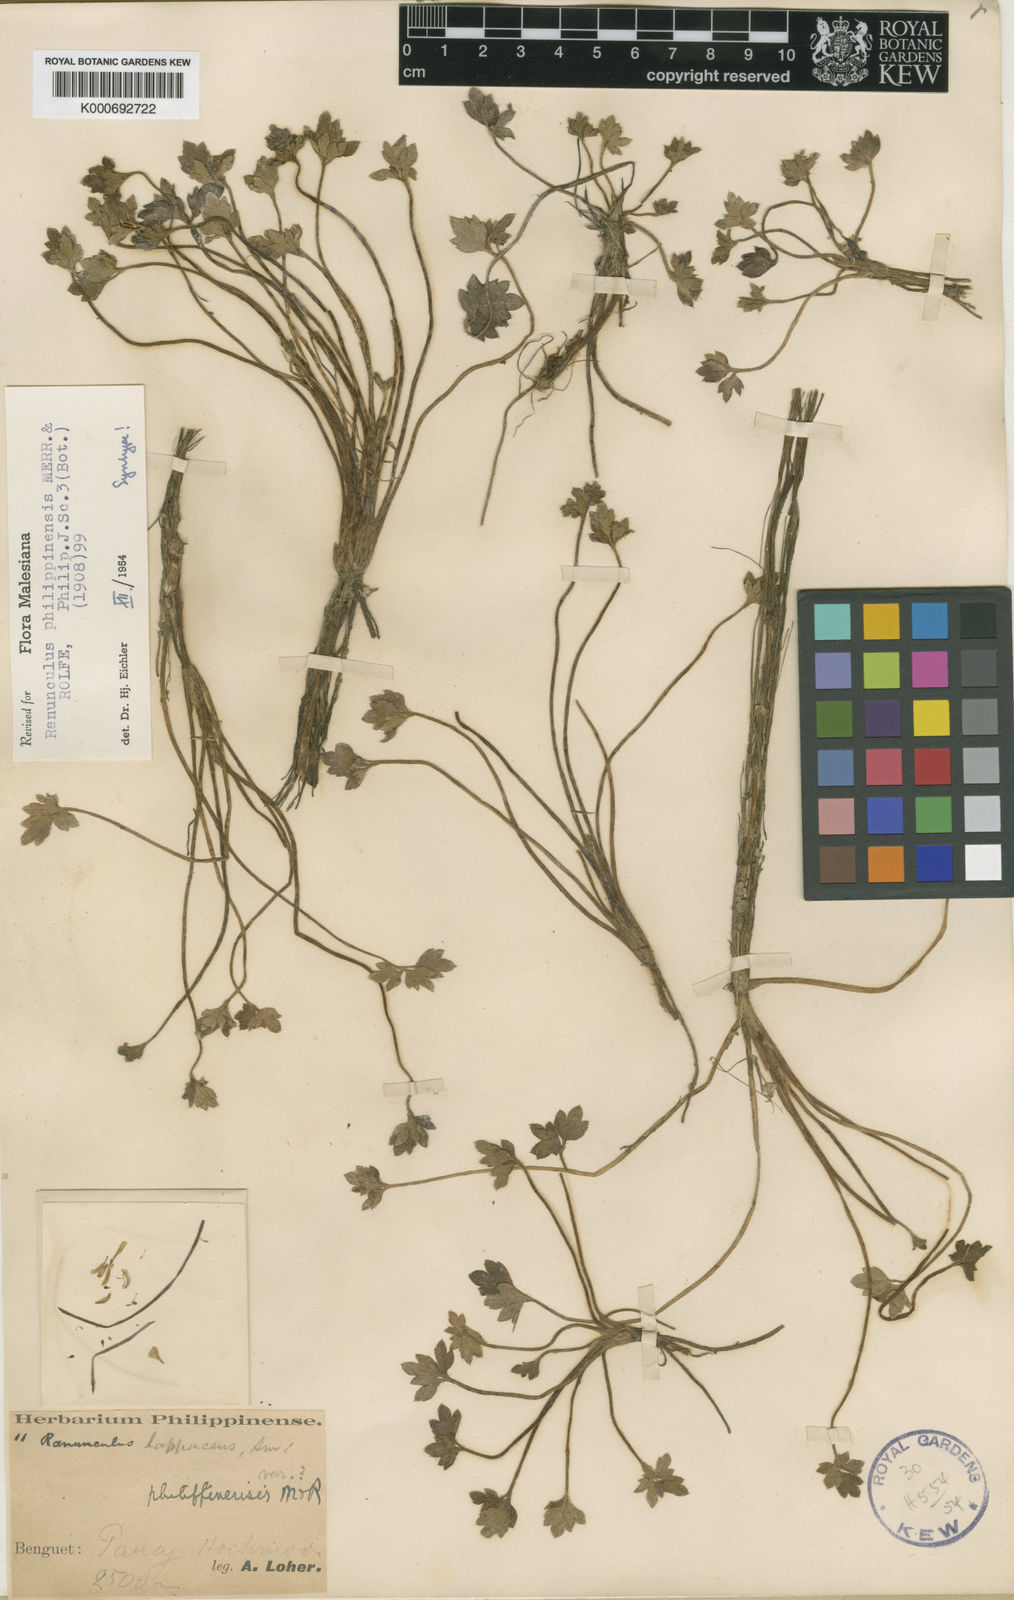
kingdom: Plantae
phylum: Tracheophyta
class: Magnoliopsida
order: Ranunculales
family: Ranunculaceae
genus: Ranunculus
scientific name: Ranunculus philippinensis
